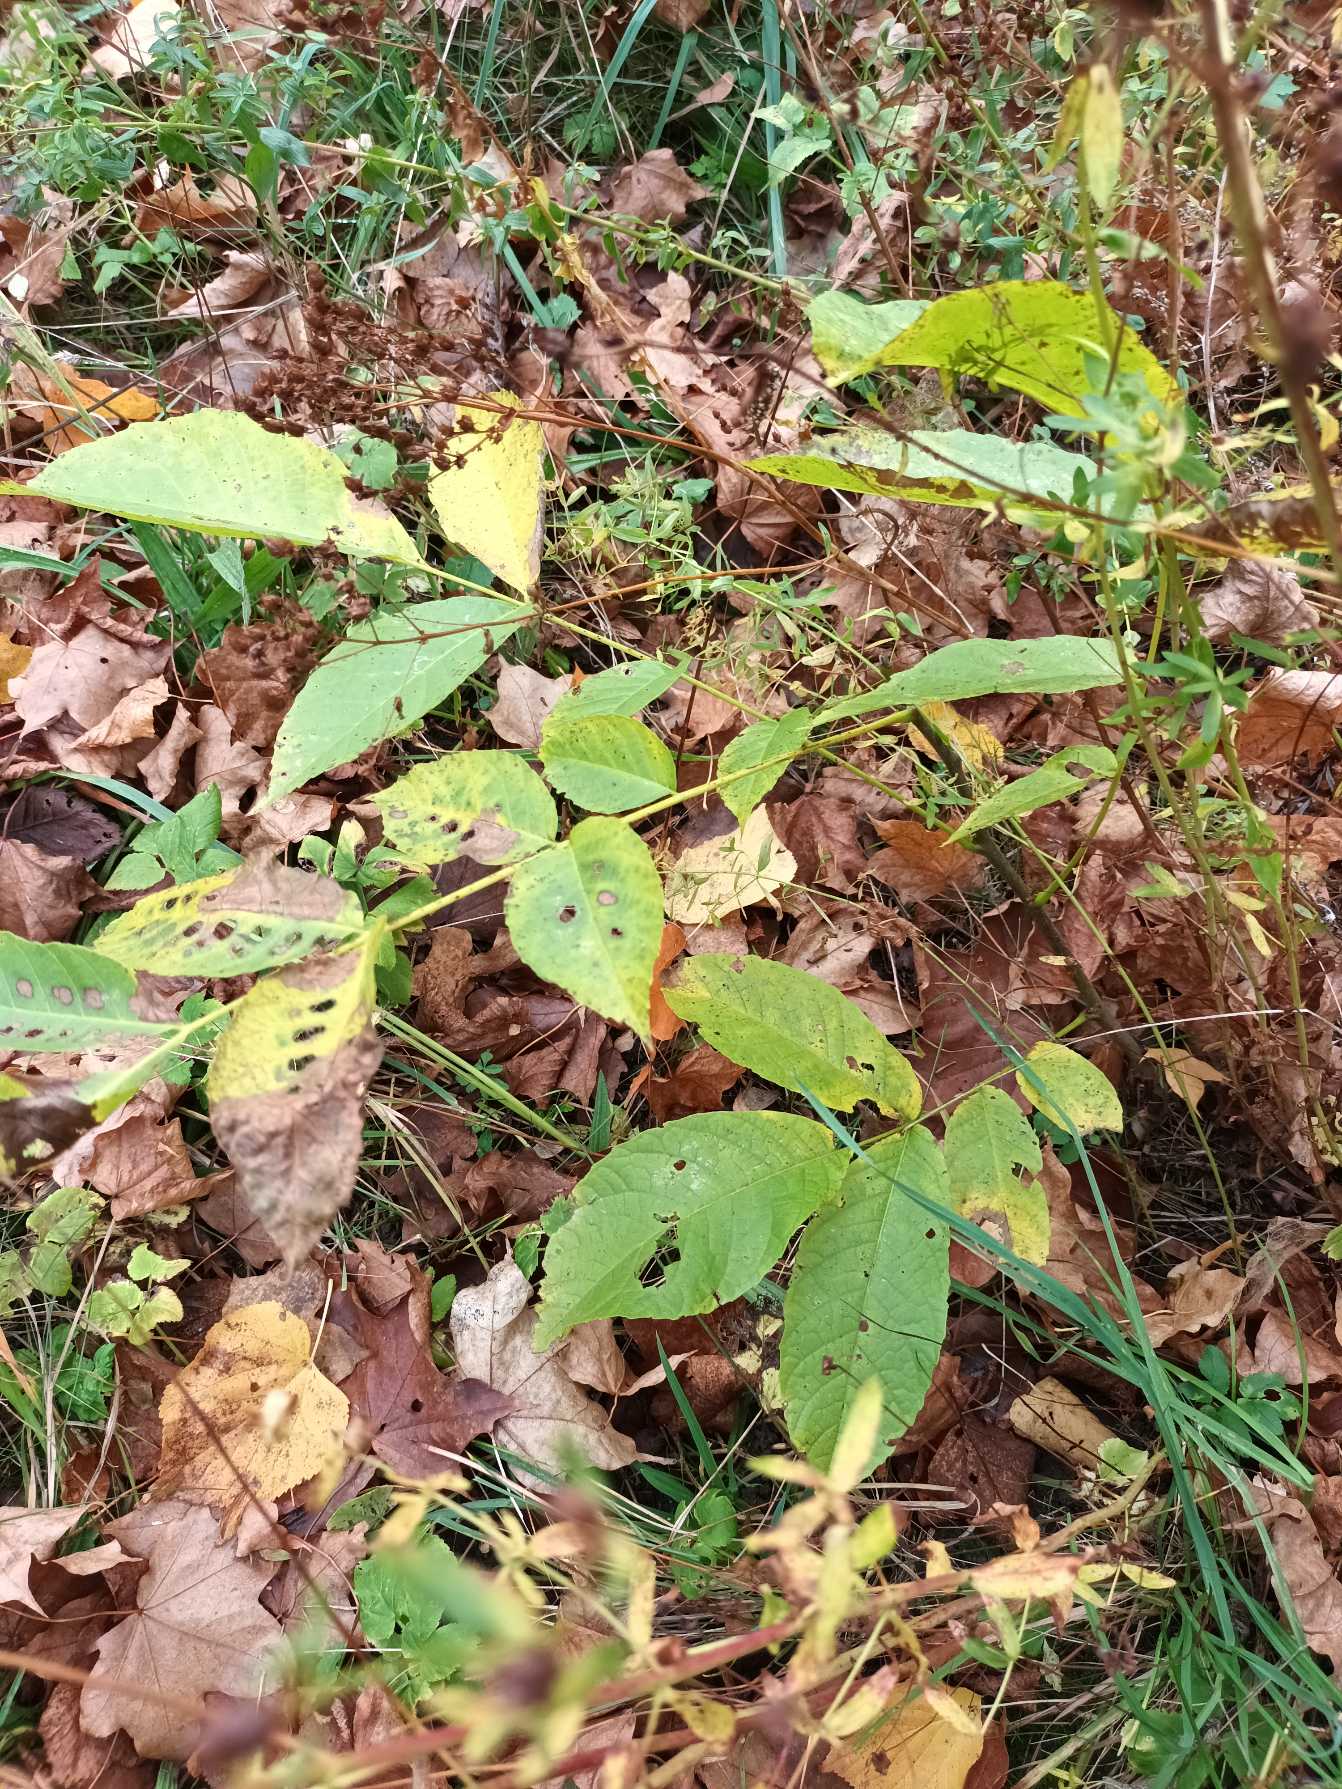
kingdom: Plantae
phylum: Tracheophyta
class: Magnoliopsida
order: Fagales
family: Juglandaceae
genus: Juglans
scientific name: Juglans regia
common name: Almindelig valnød
